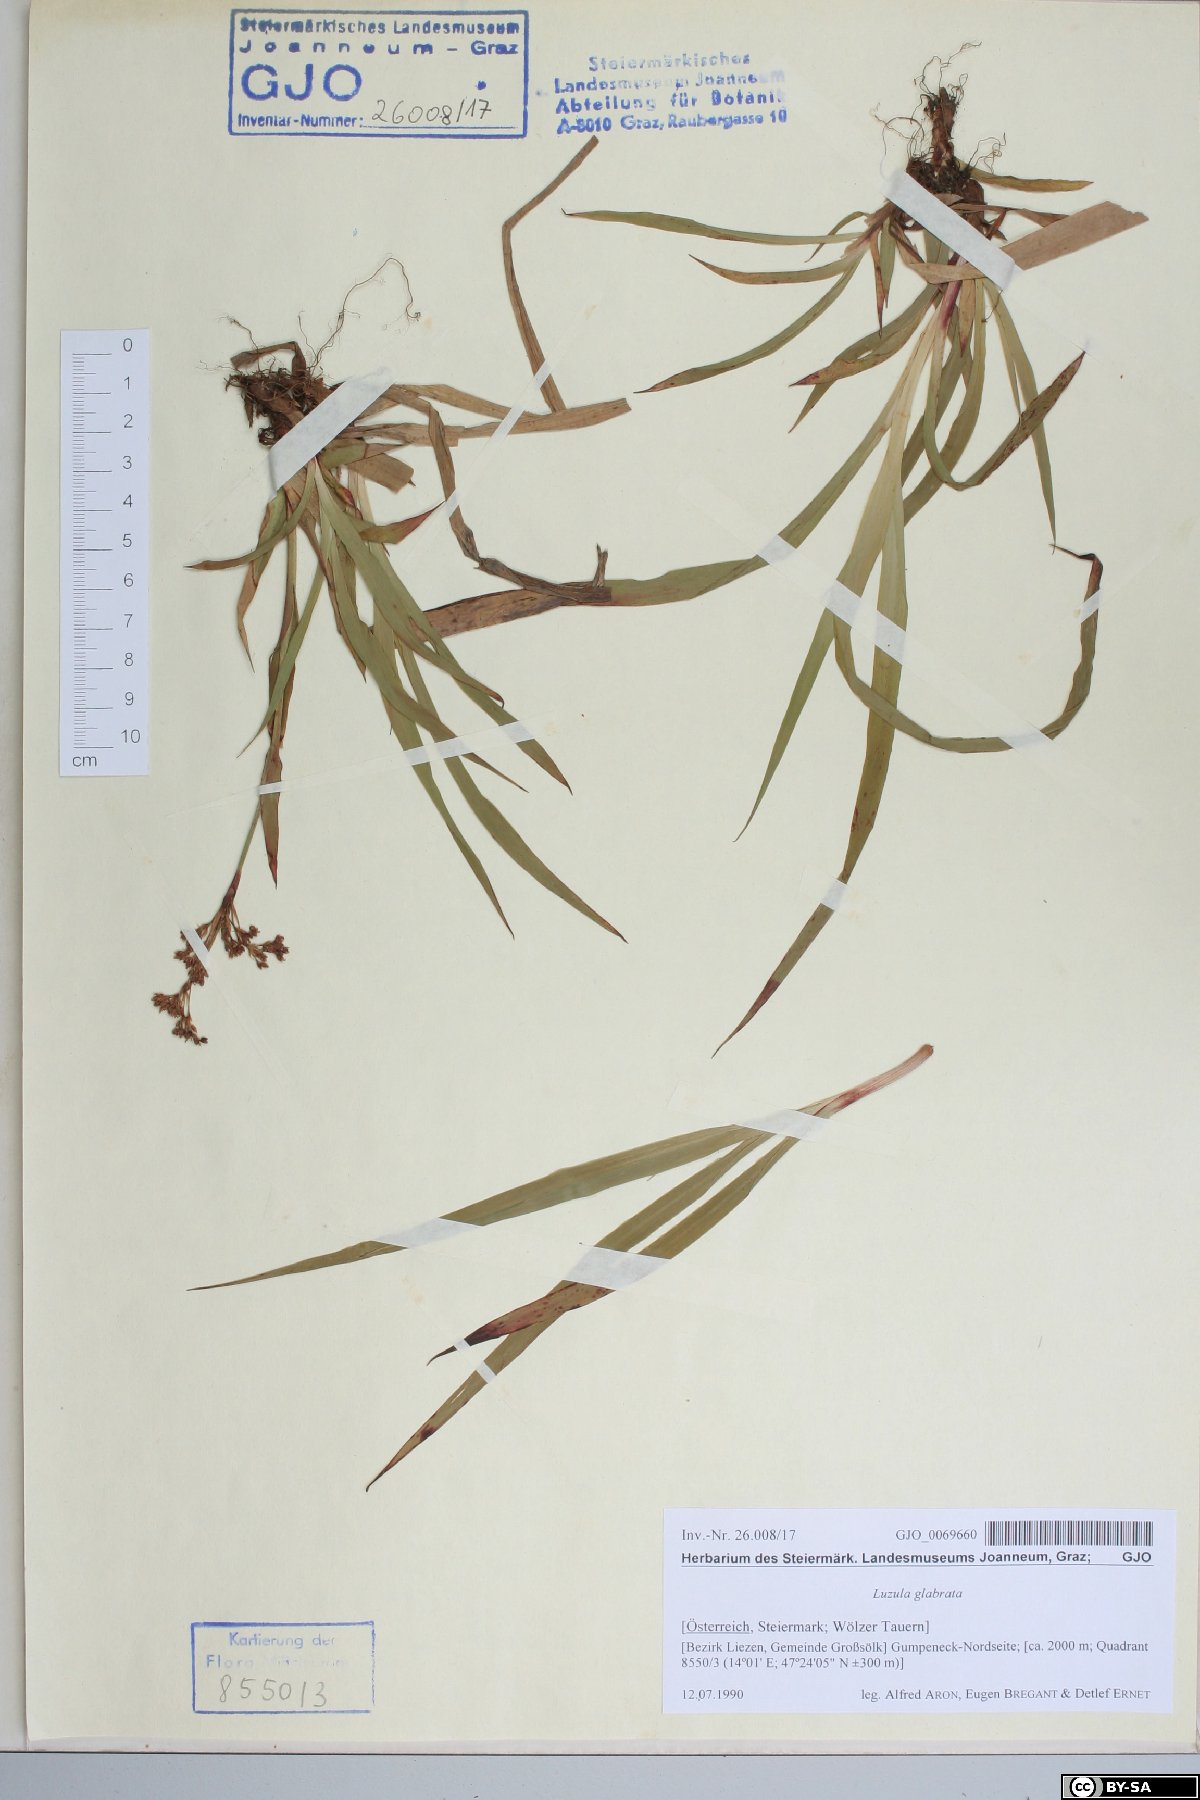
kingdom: Plantae
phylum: Tracheophyta
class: Liliopsida
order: Poales
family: Juncaceae
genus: Luzula
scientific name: Luzula glabrata
